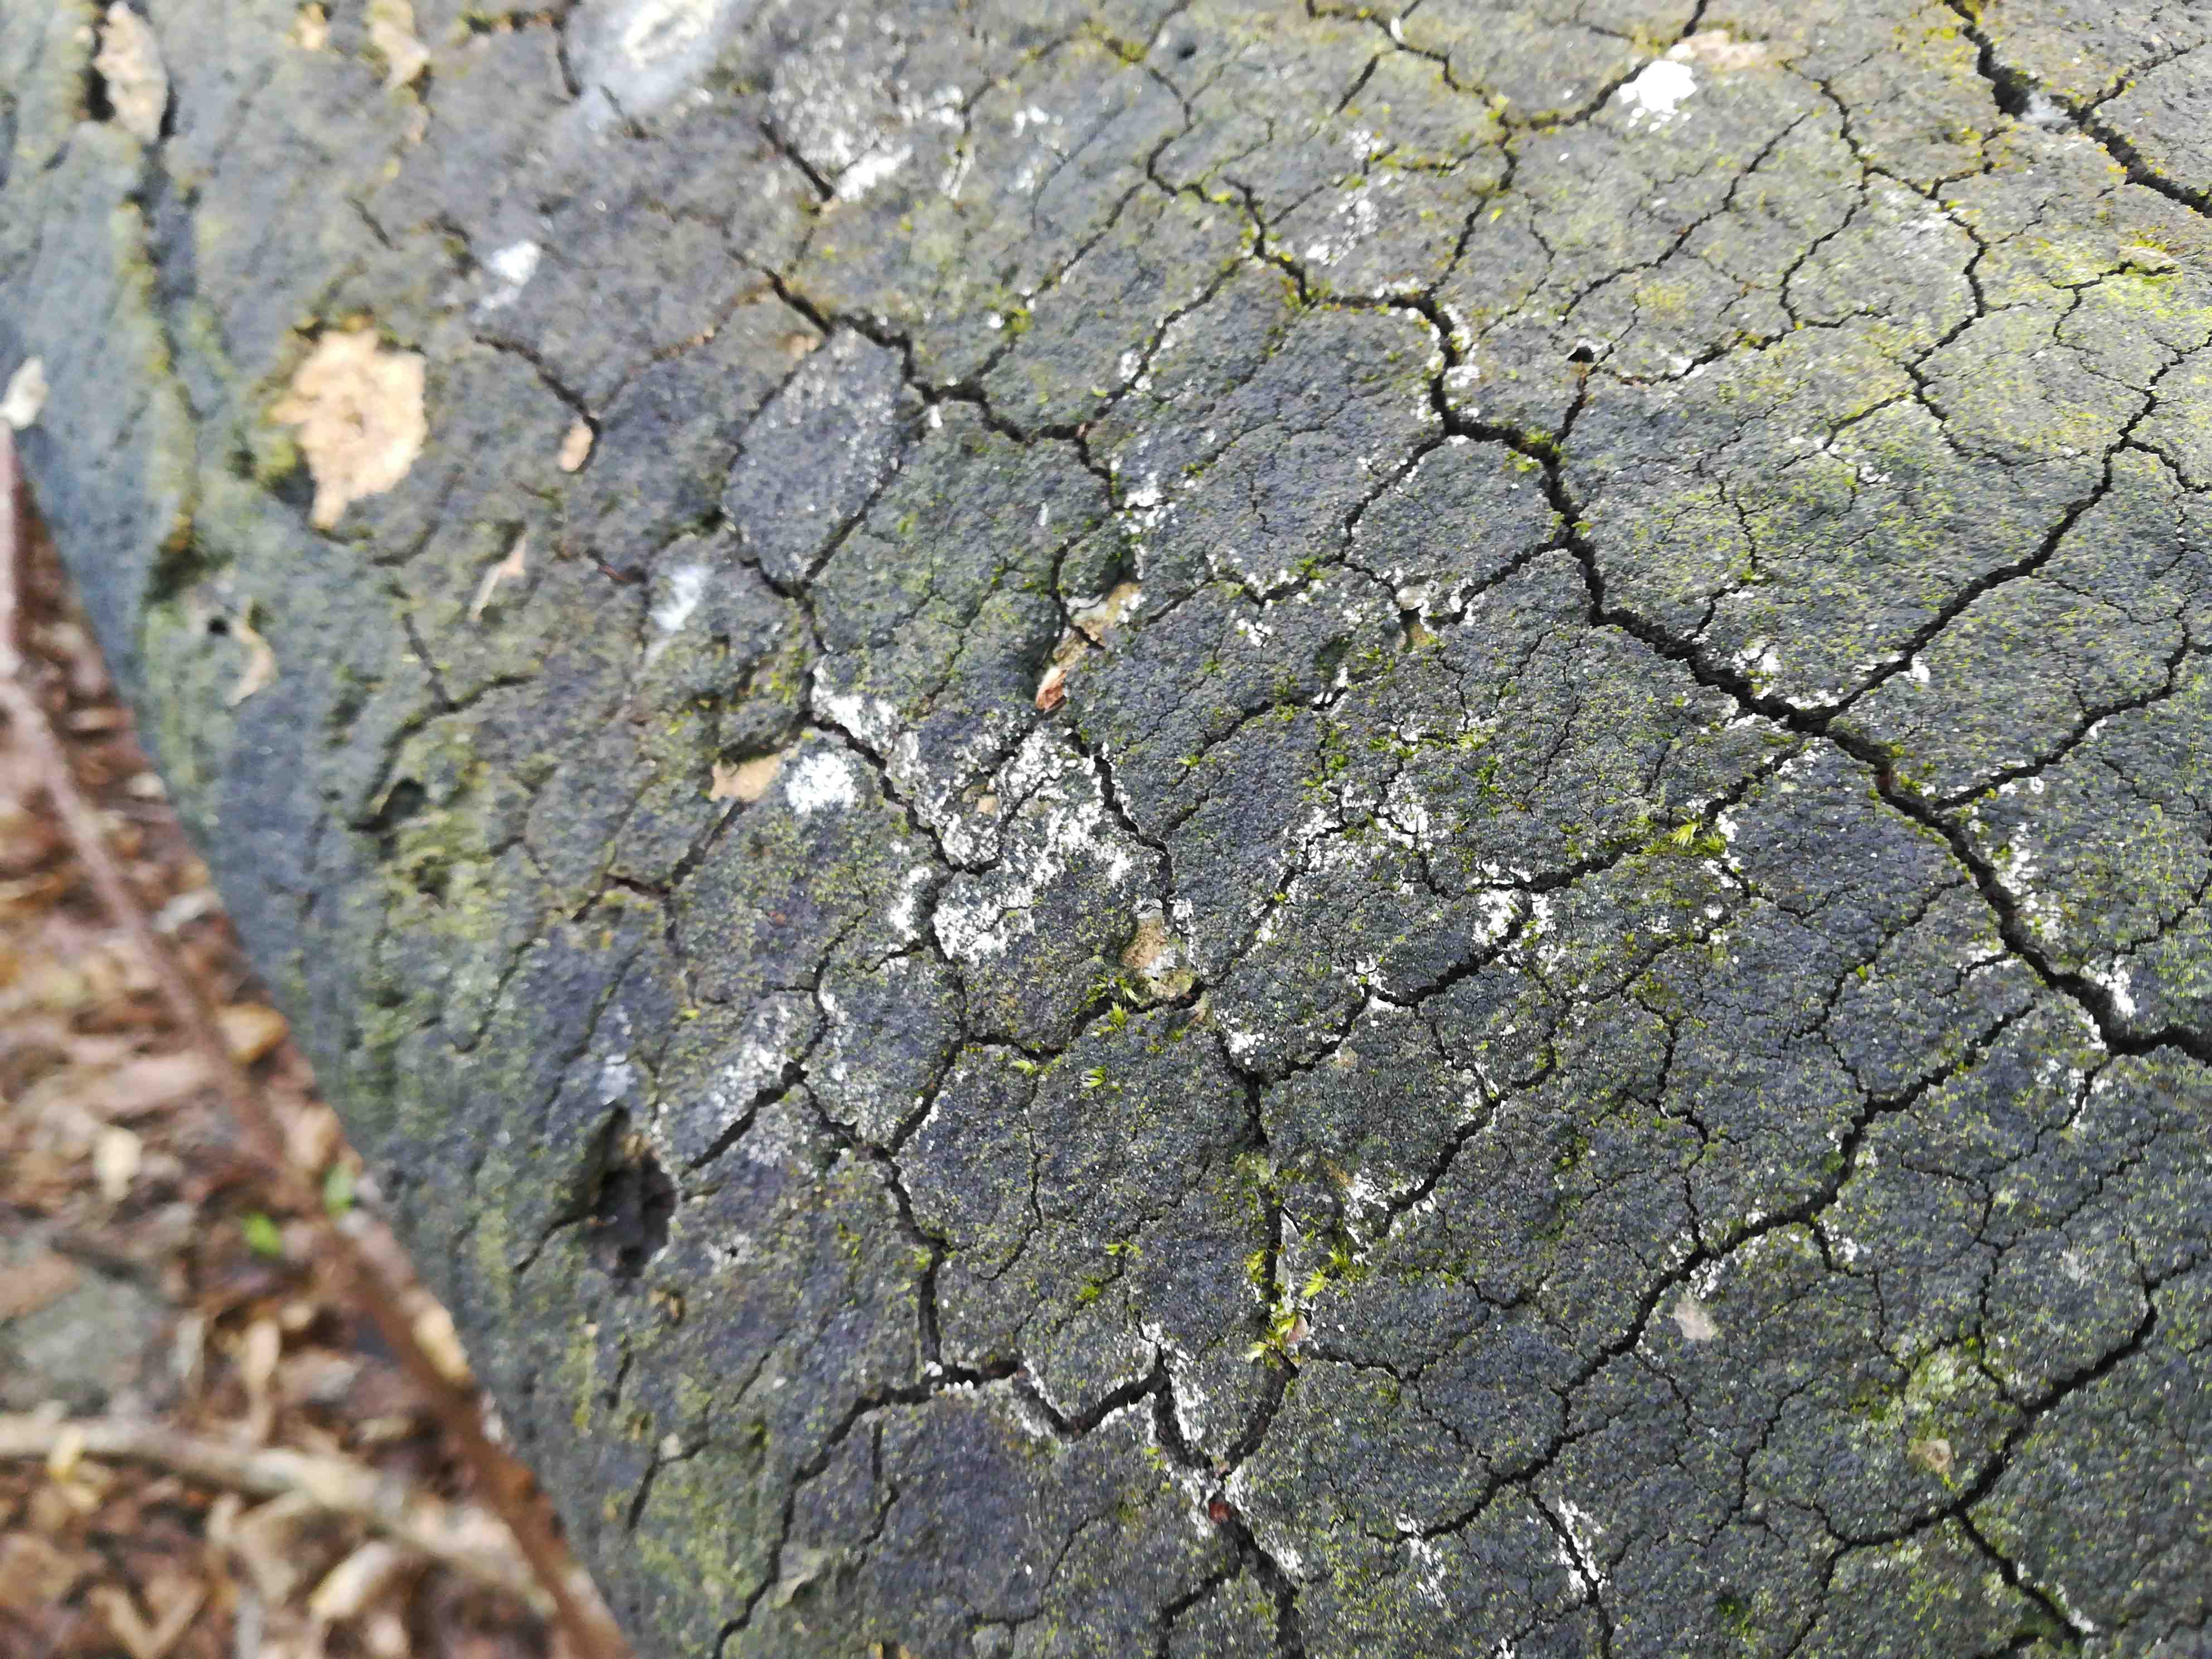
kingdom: Fungi
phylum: Ascomycota
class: Sordariomycetes
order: Xylariales
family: Diatrypaceae
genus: Eutypa
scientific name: Eutypa spinosa
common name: grov kulskorpe
